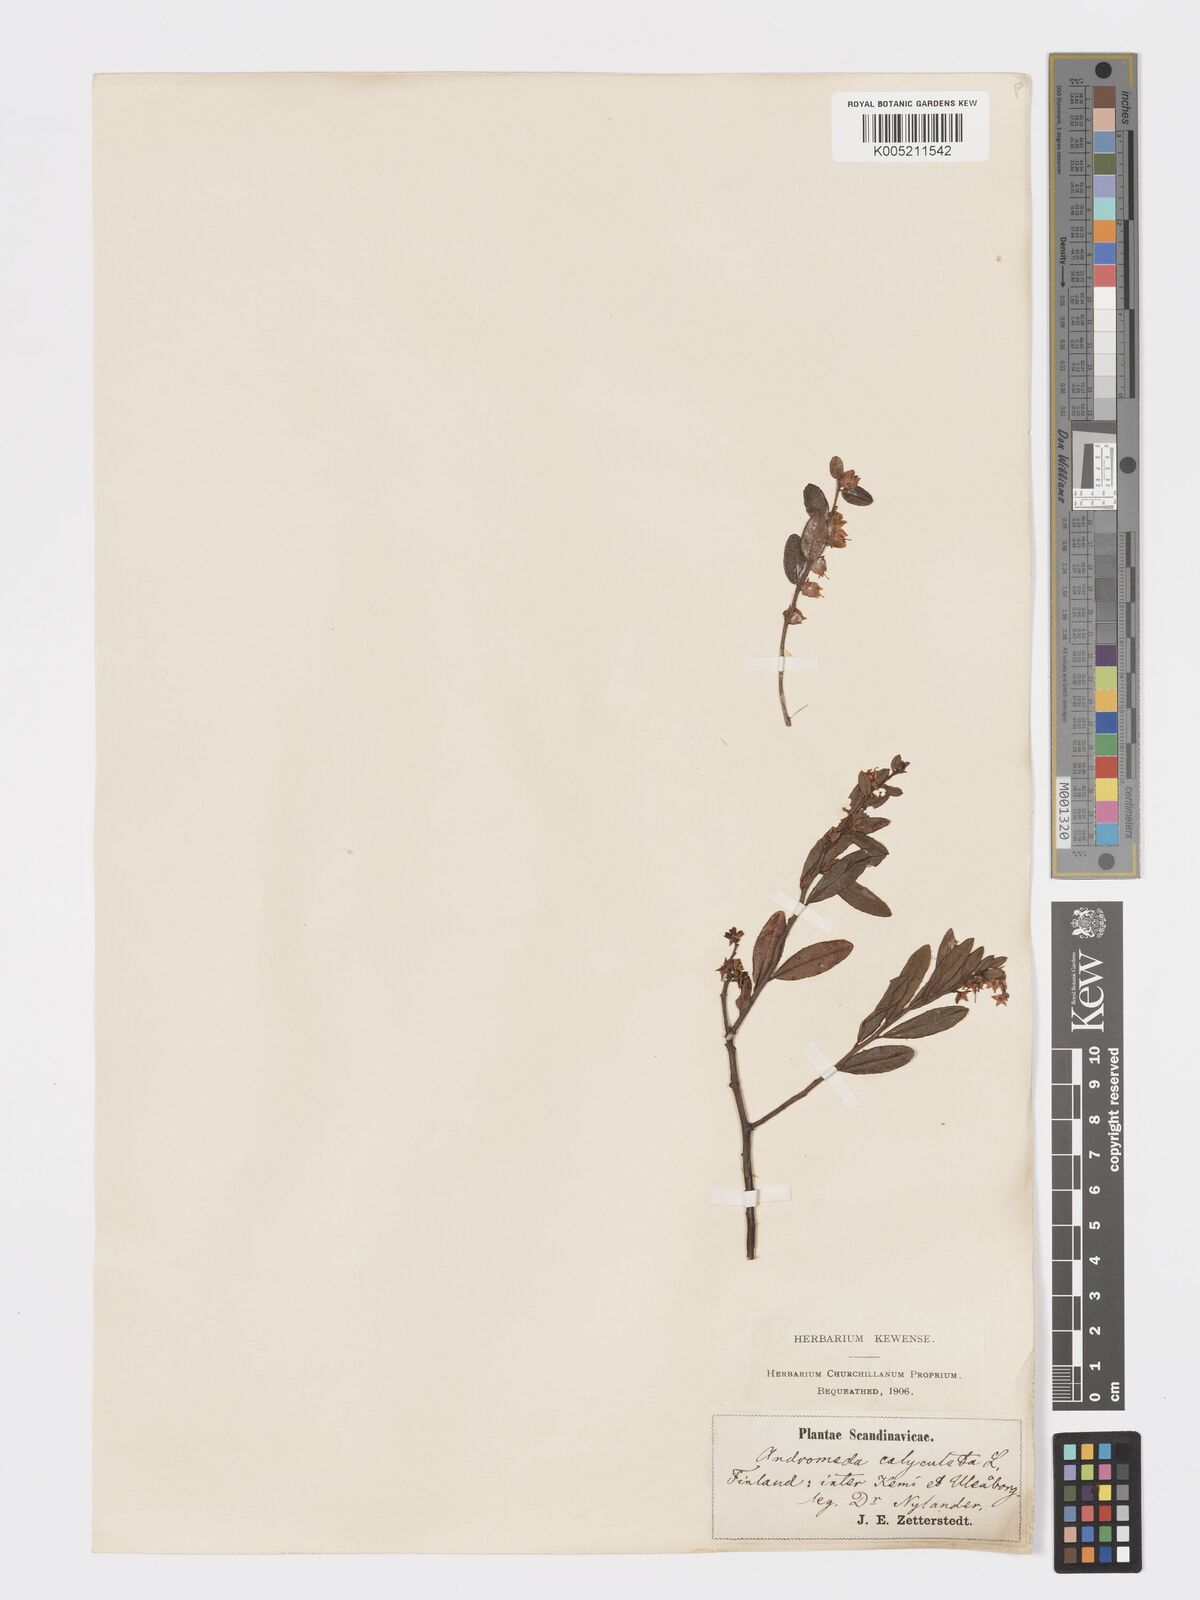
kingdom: Plantae
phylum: Tracheophyta
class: Magnoliopsida
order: Ericales
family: Ericaceae
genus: Chamaedaphne
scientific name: Chamaedaphne calyculata
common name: Leatherleaf
